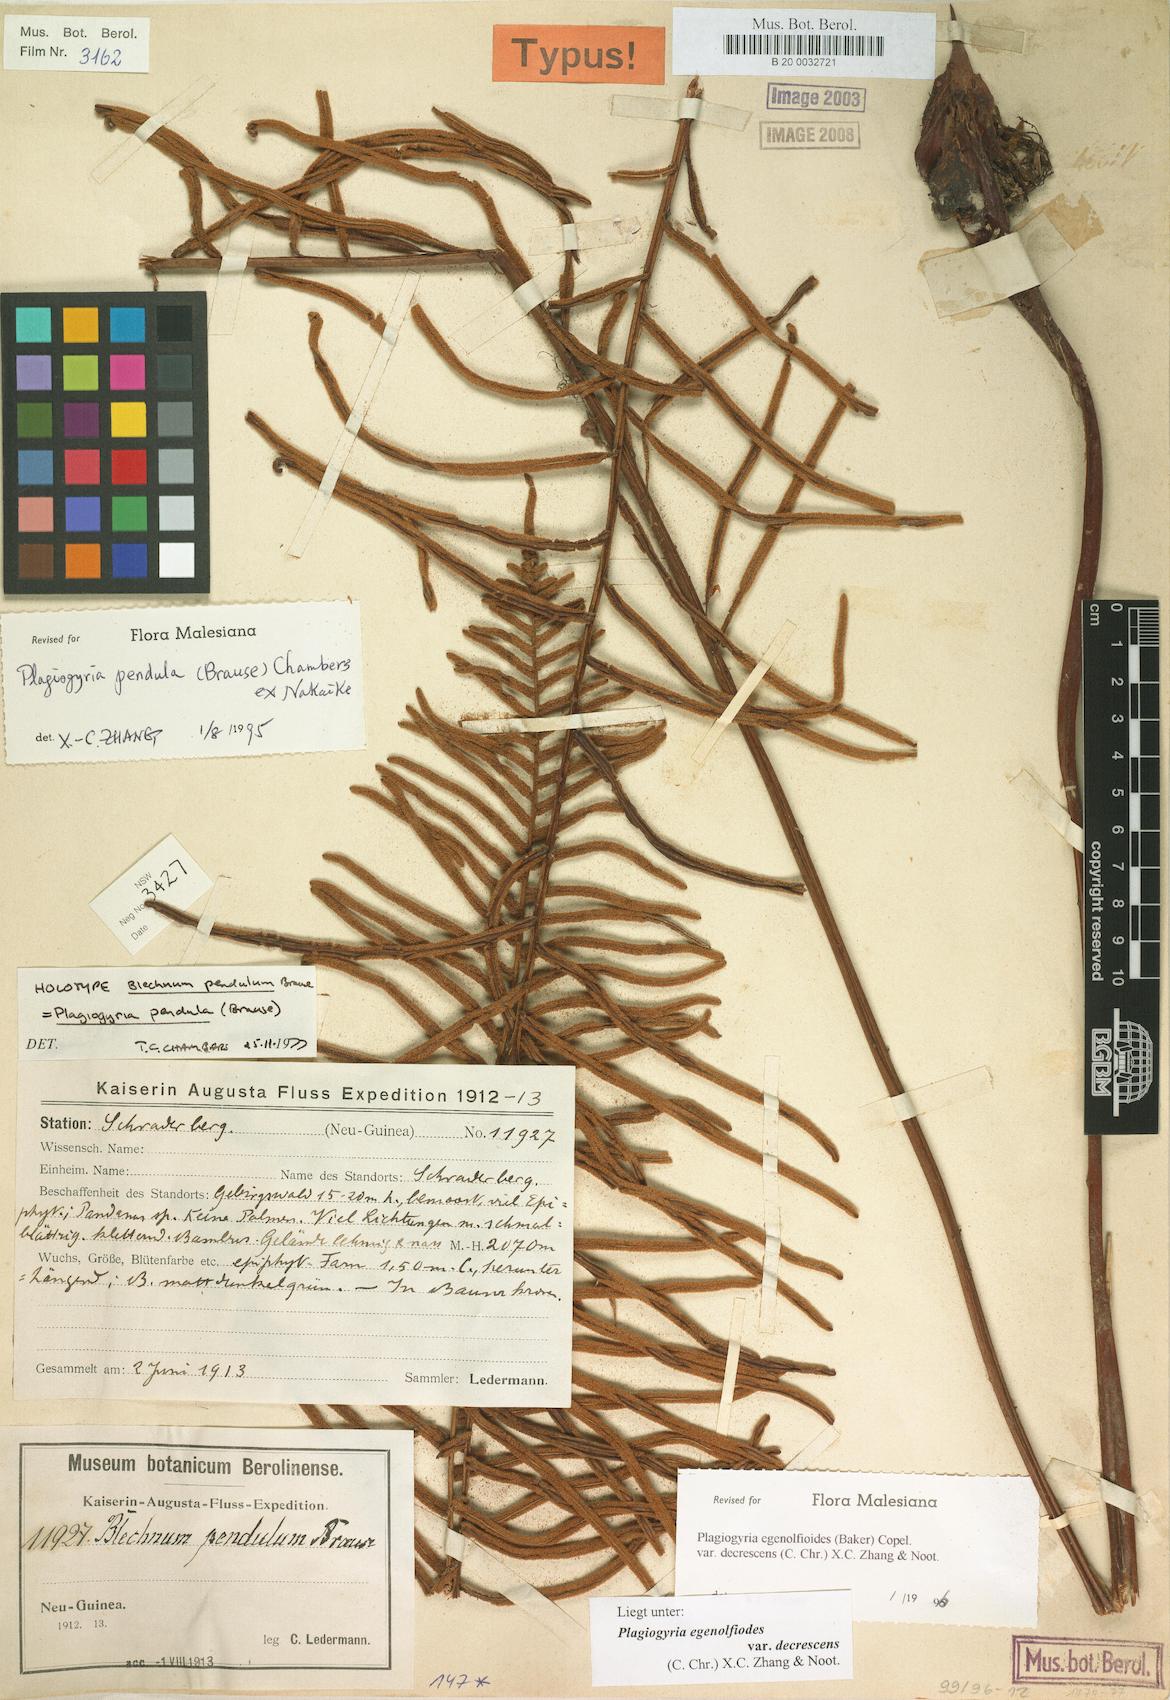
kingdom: Plantae
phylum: Tracheophyta
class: Polypodiopsida
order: Cyatheales
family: Plagiogyriaceae
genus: Plagiogyria
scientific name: Plagiogyria egenolfioides
